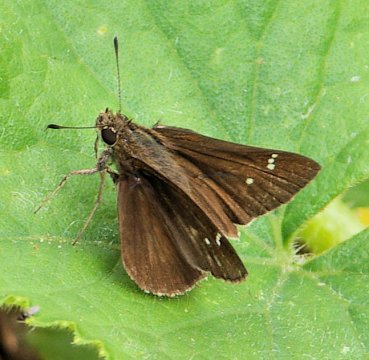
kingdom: Animalia
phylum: Arthropoda
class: Insecta
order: Lepidoptera
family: Hesperiidae
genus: Vernia
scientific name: Vernia verna
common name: Little Glassywing
